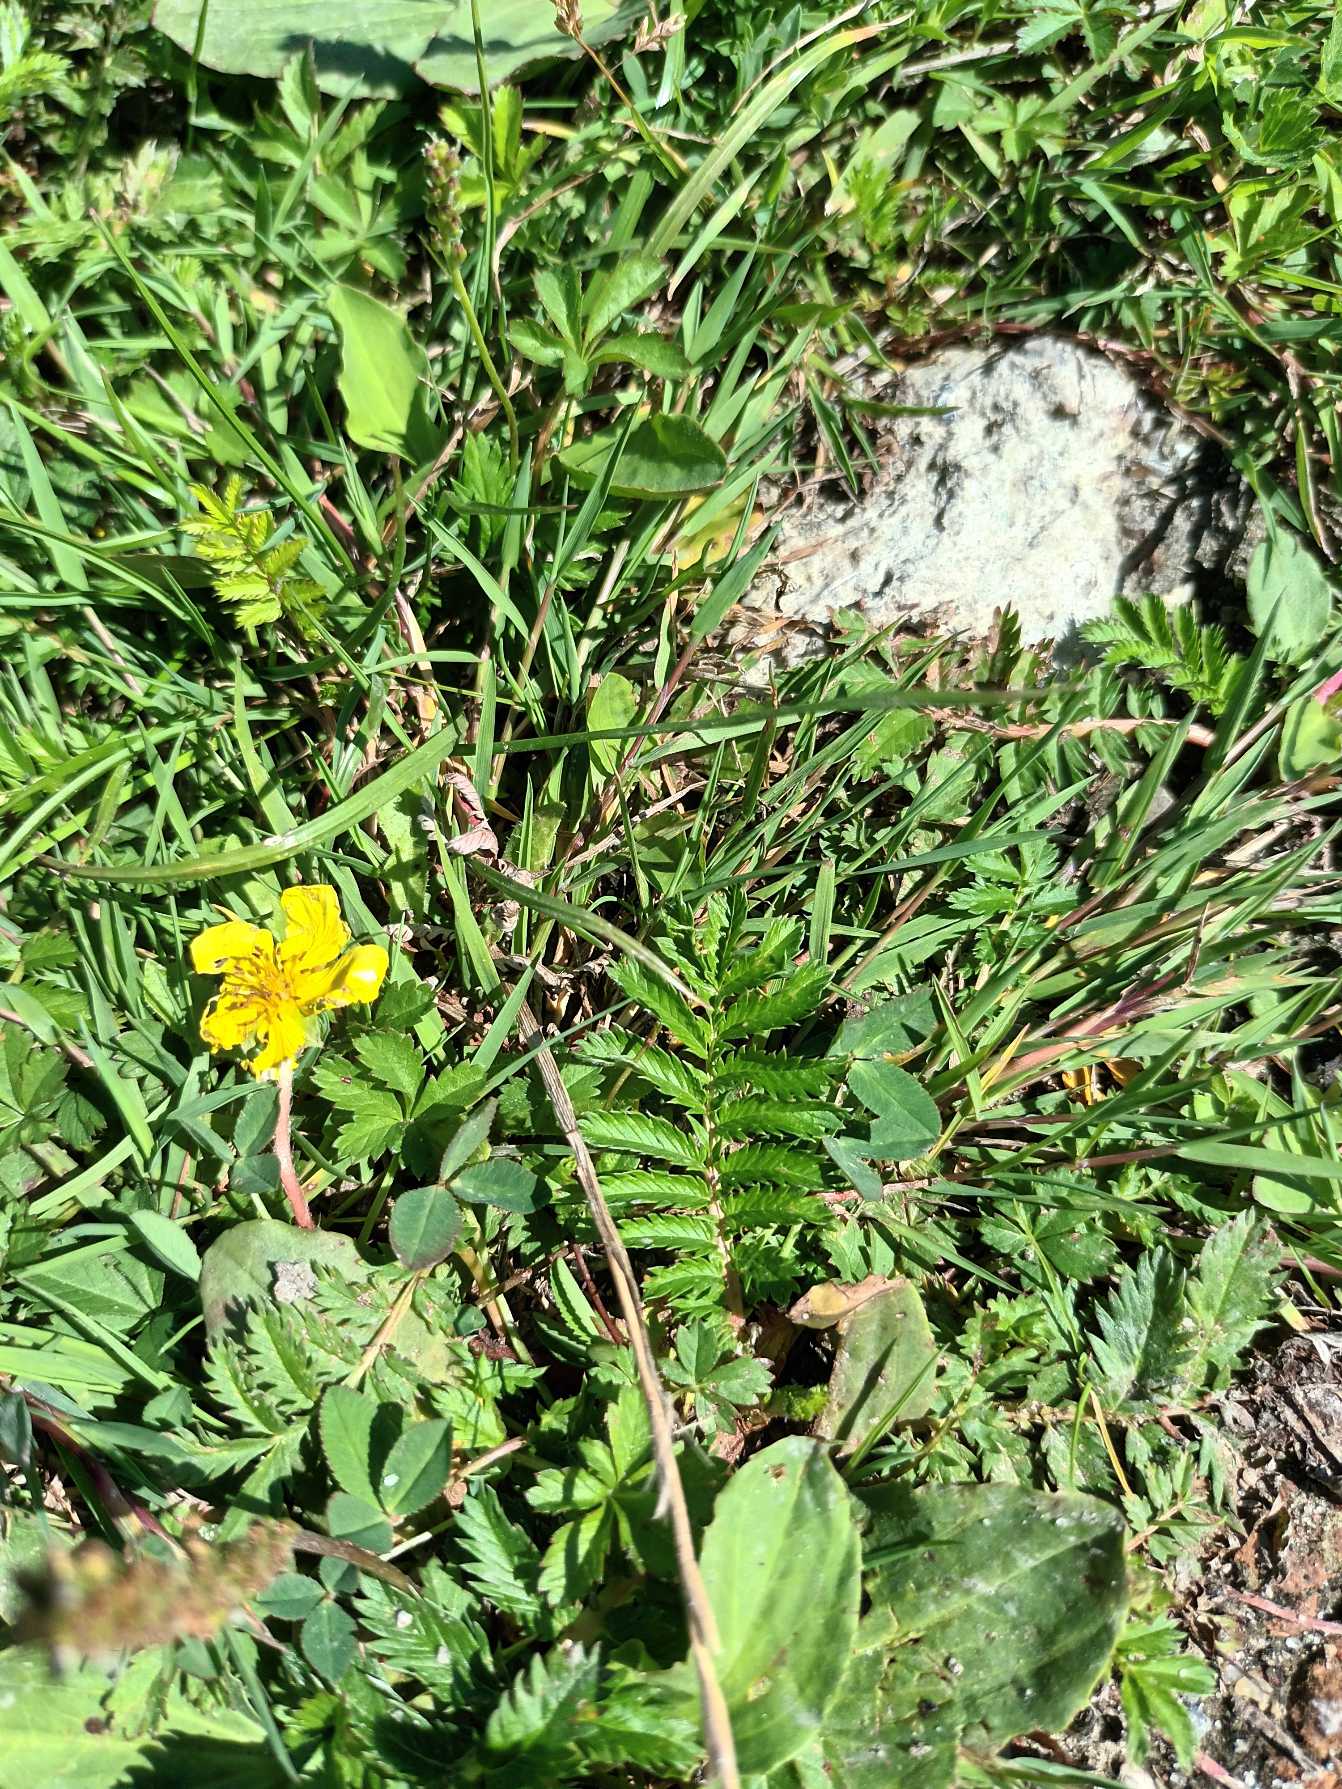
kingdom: Plantae
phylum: Tracheophyta
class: Magnoliopsida
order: Rosales
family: Rosaceae
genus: Argentina
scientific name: Argentina anserina
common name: Gåsepotentil
